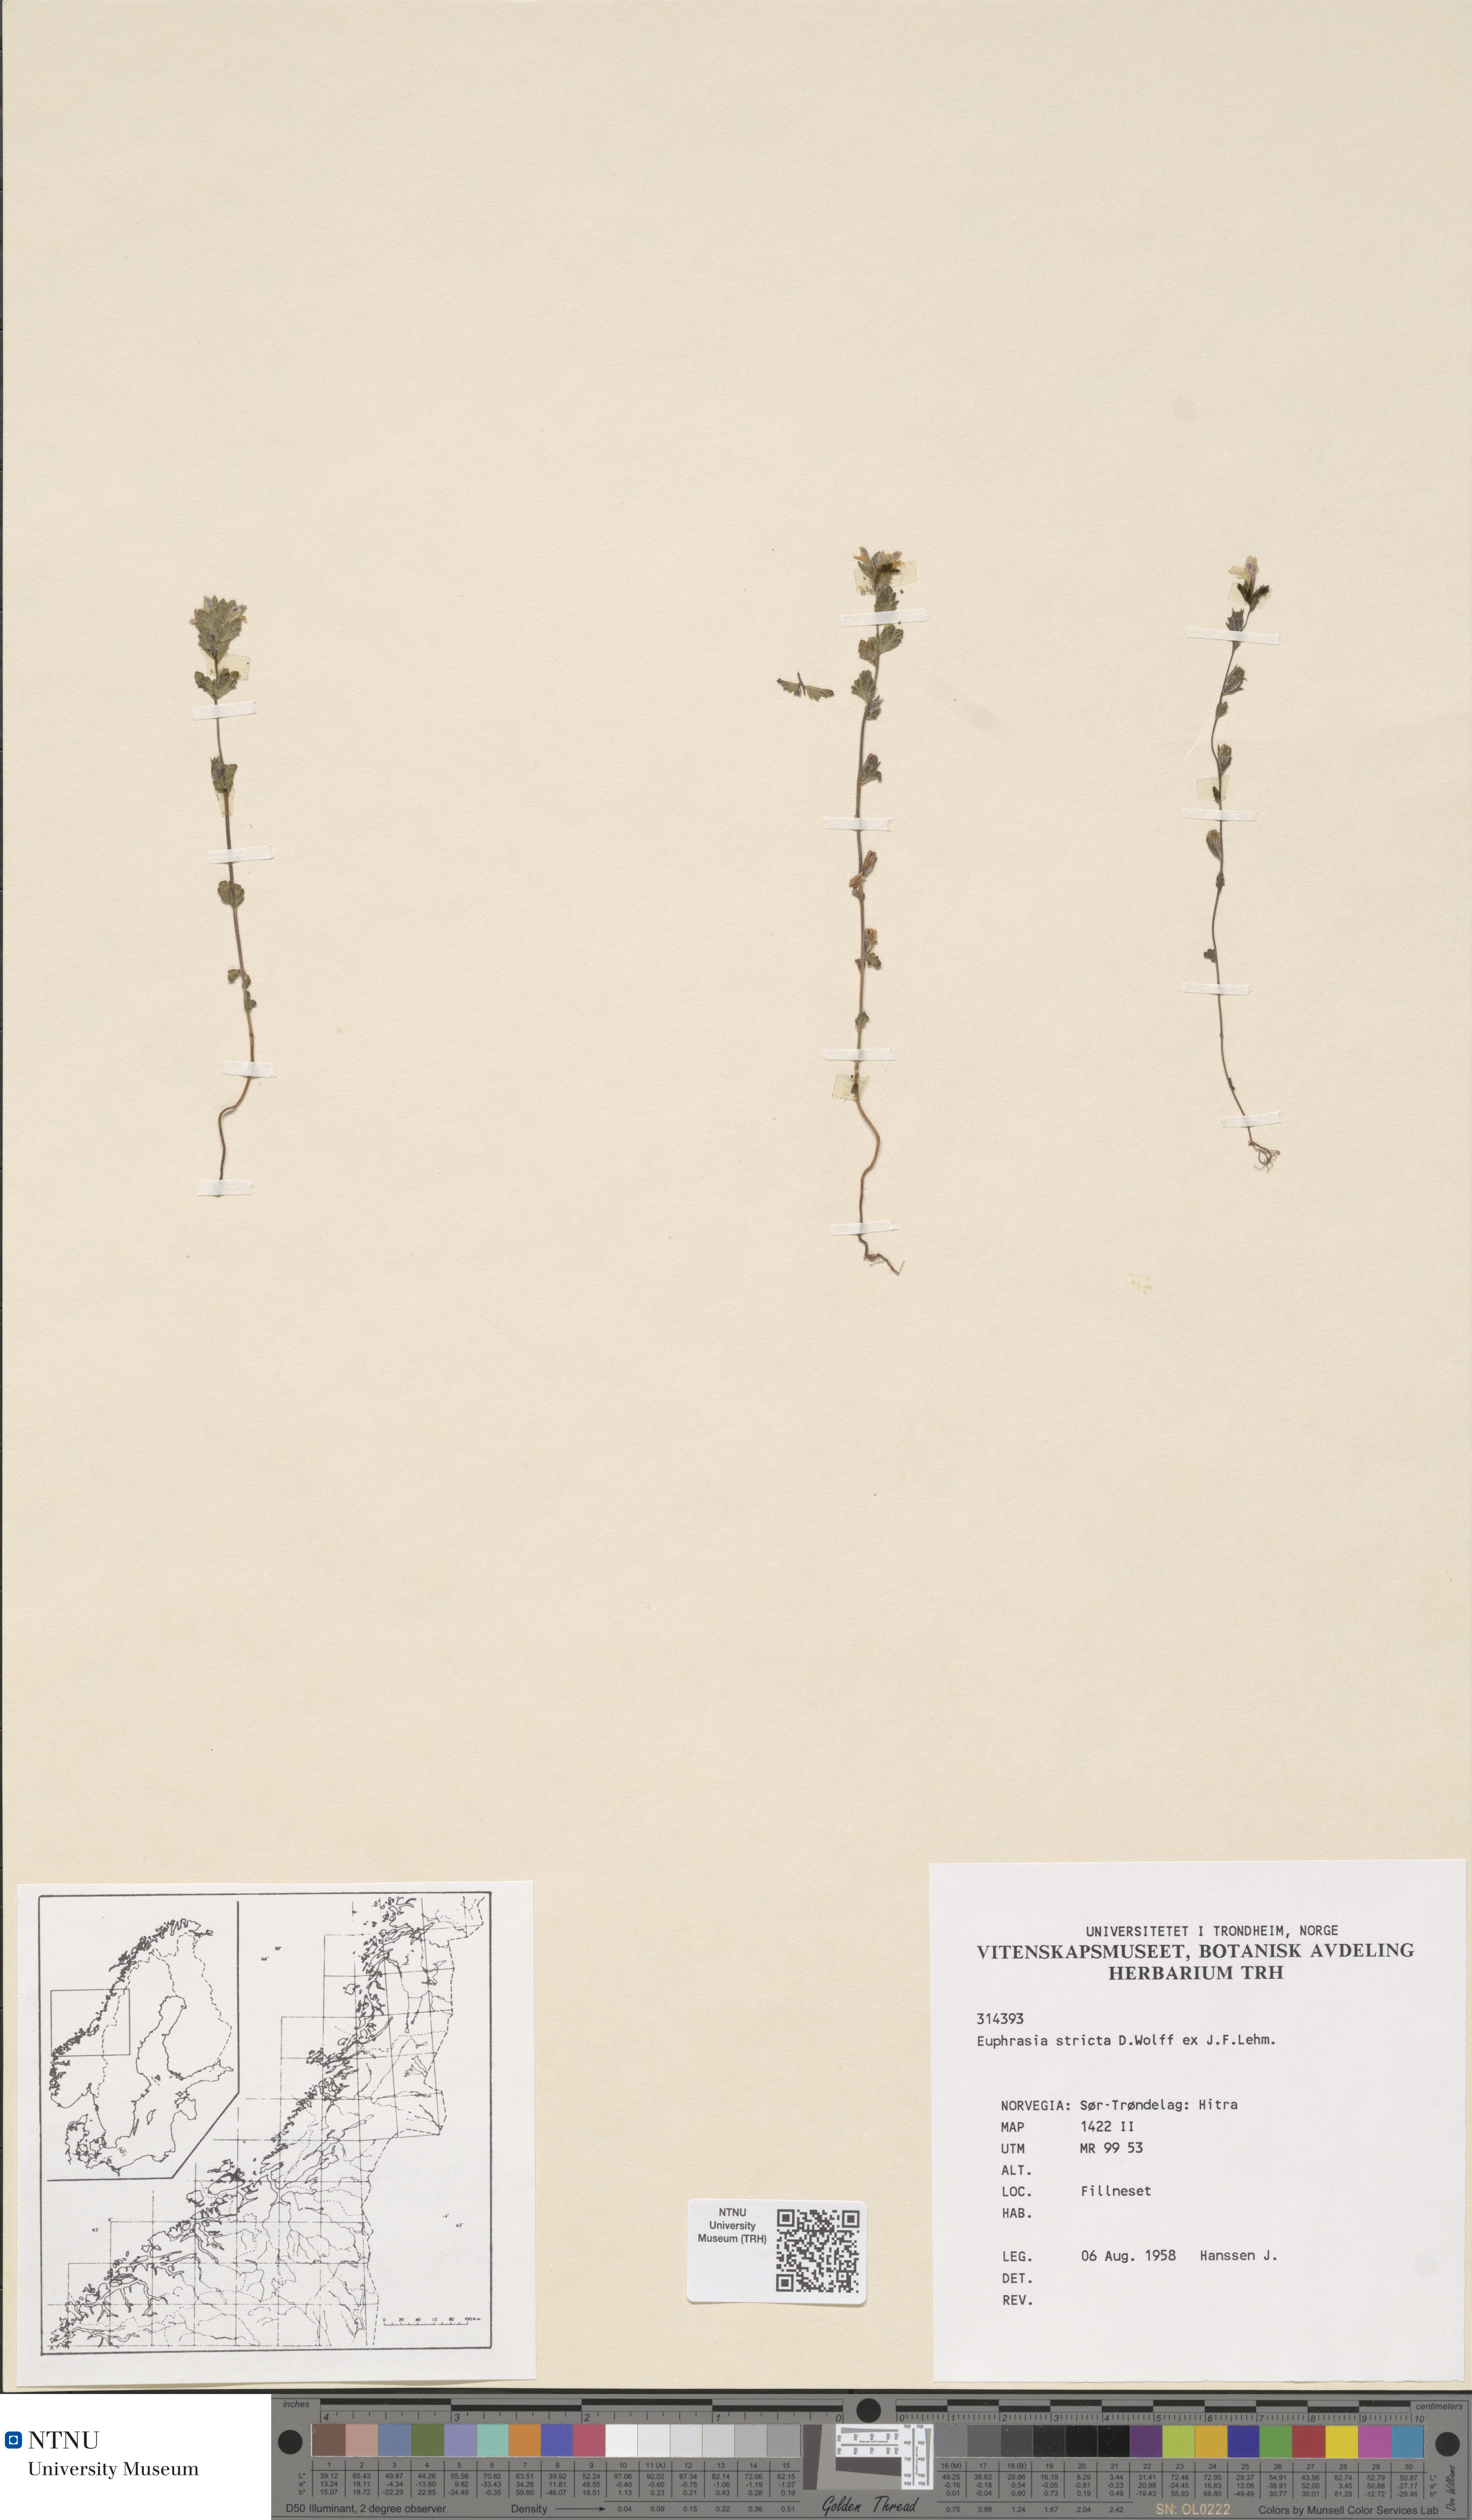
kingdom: Plantae
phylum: Tracheophyta
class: Magnoliopsida
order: Lamiales
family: Orobanchaceae
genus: Euphrasia
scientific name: Euphrasia stricta
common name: Drug eyebright
